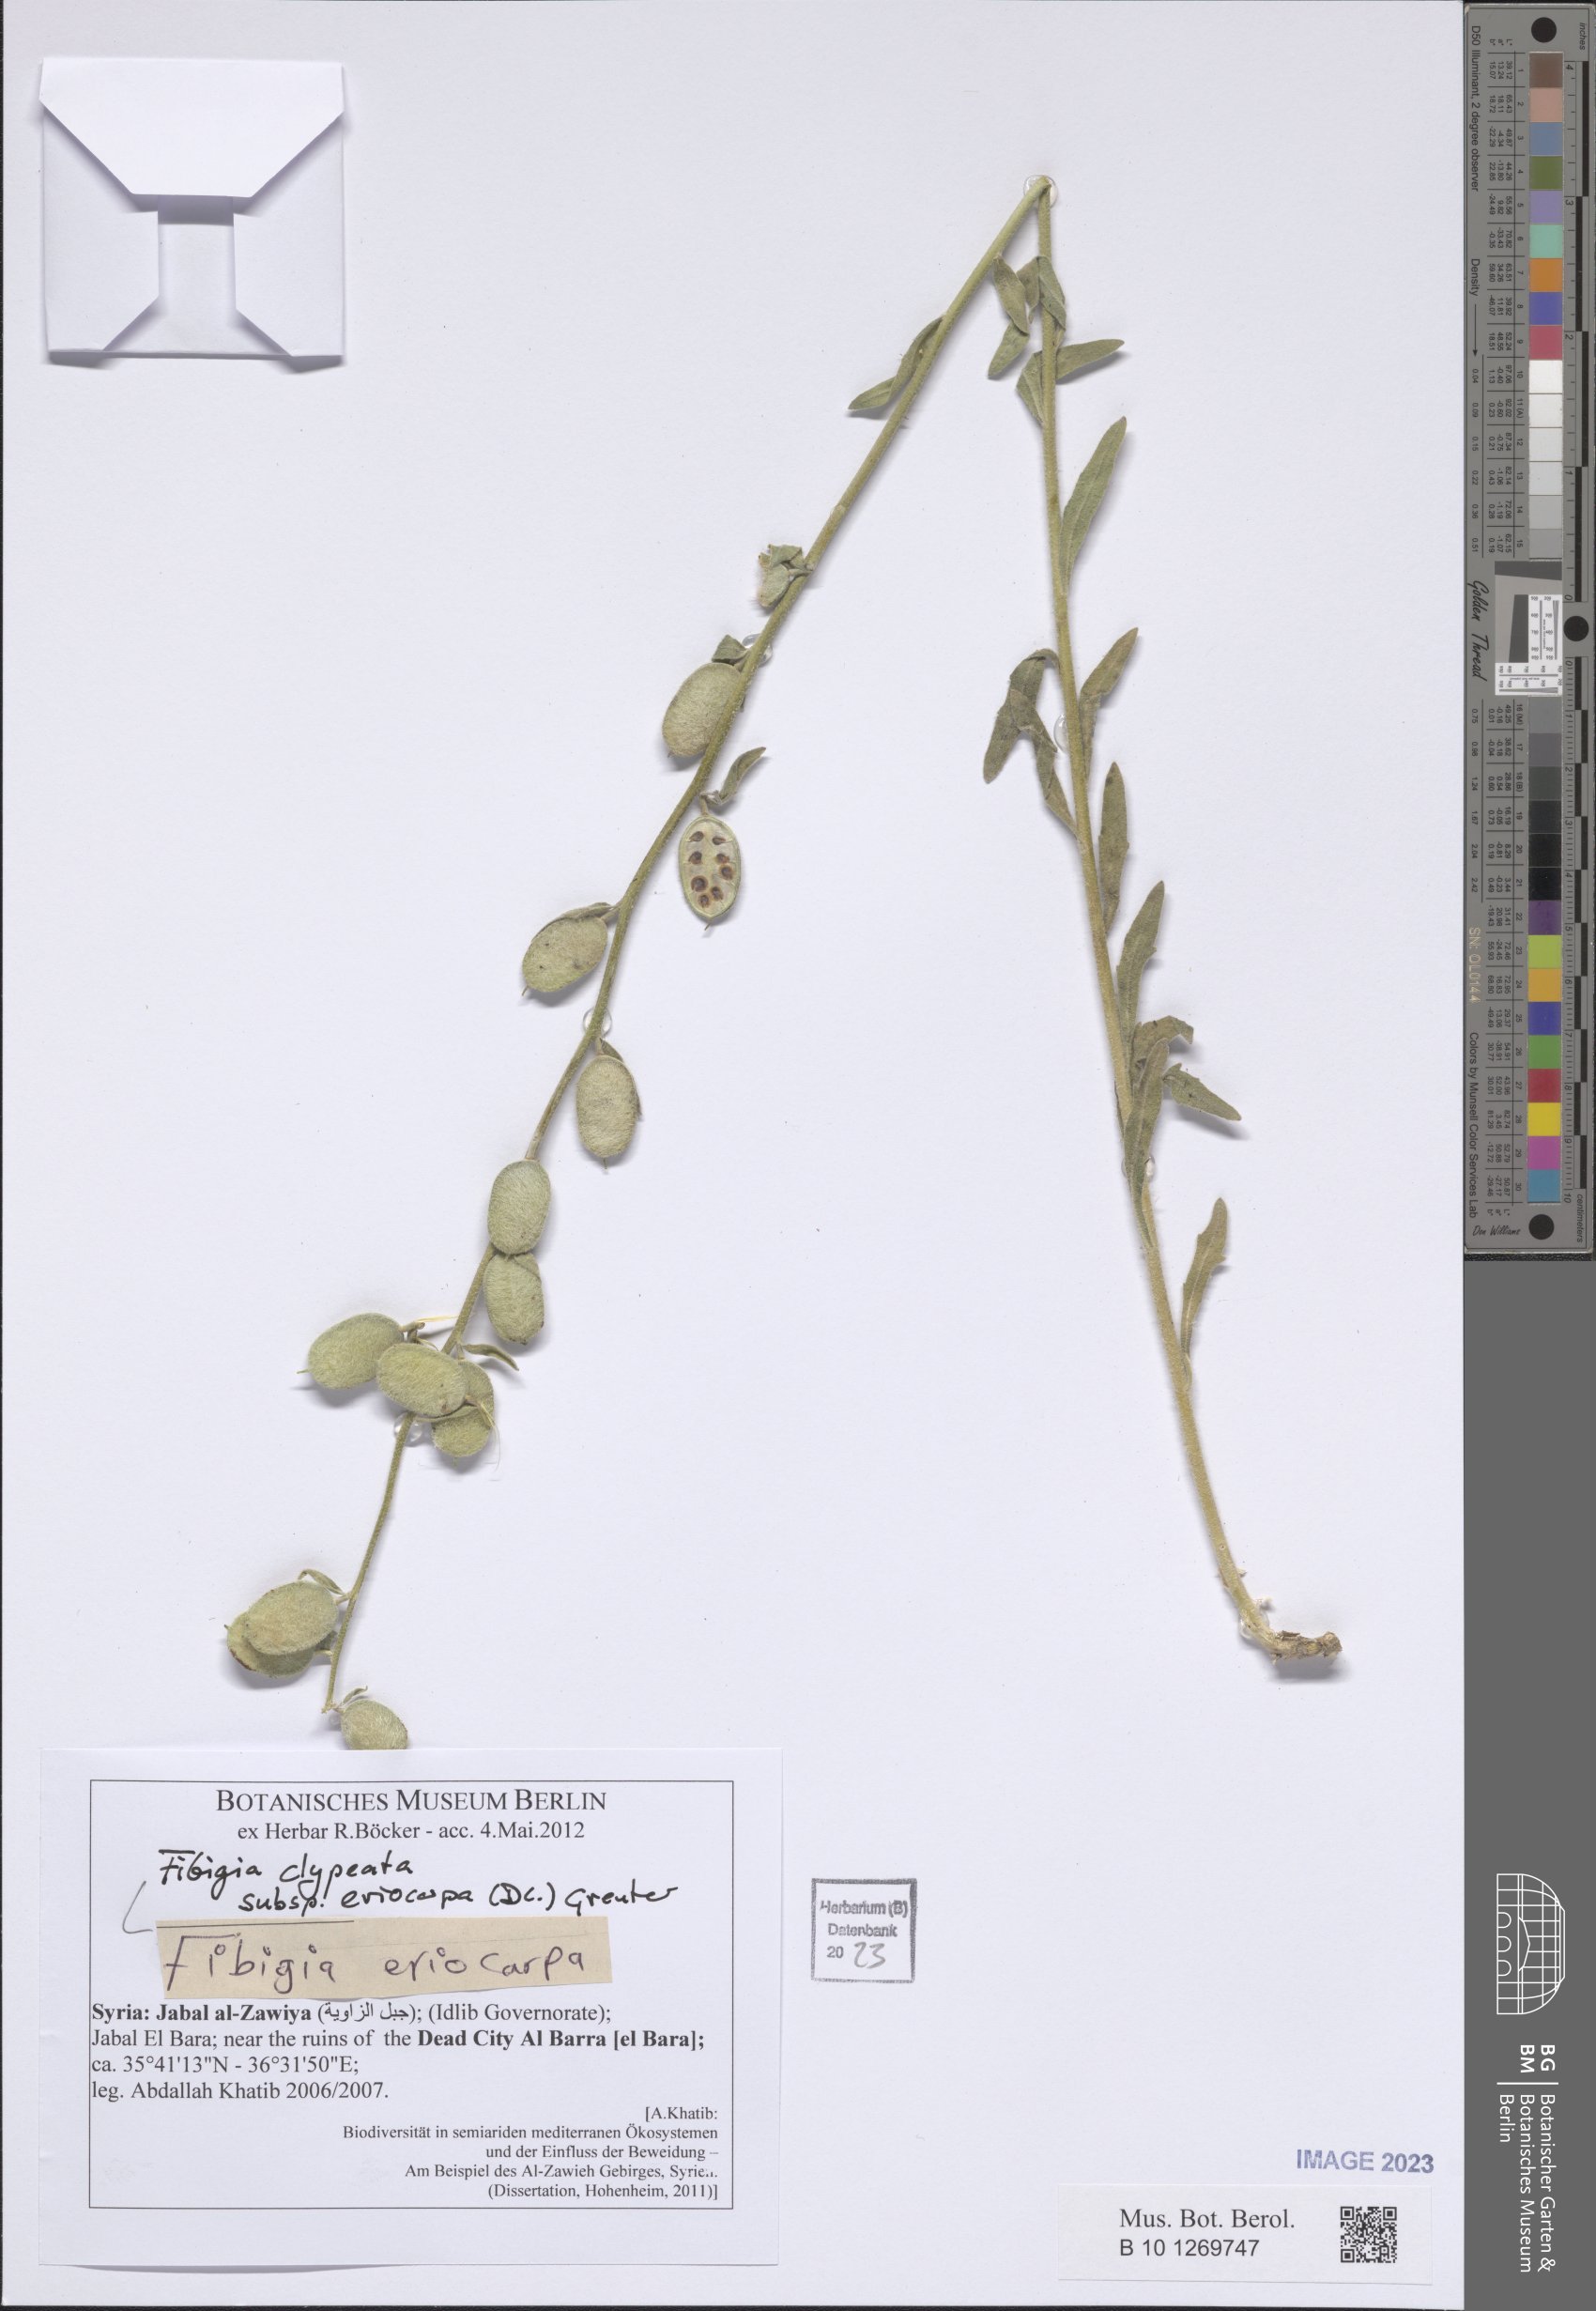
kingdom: Plantae
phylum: Tracheophyta
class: Magnoliopsida
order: Brassicales
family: Brassicaceae
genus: Fibigia
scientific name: Fibigia clypeata
